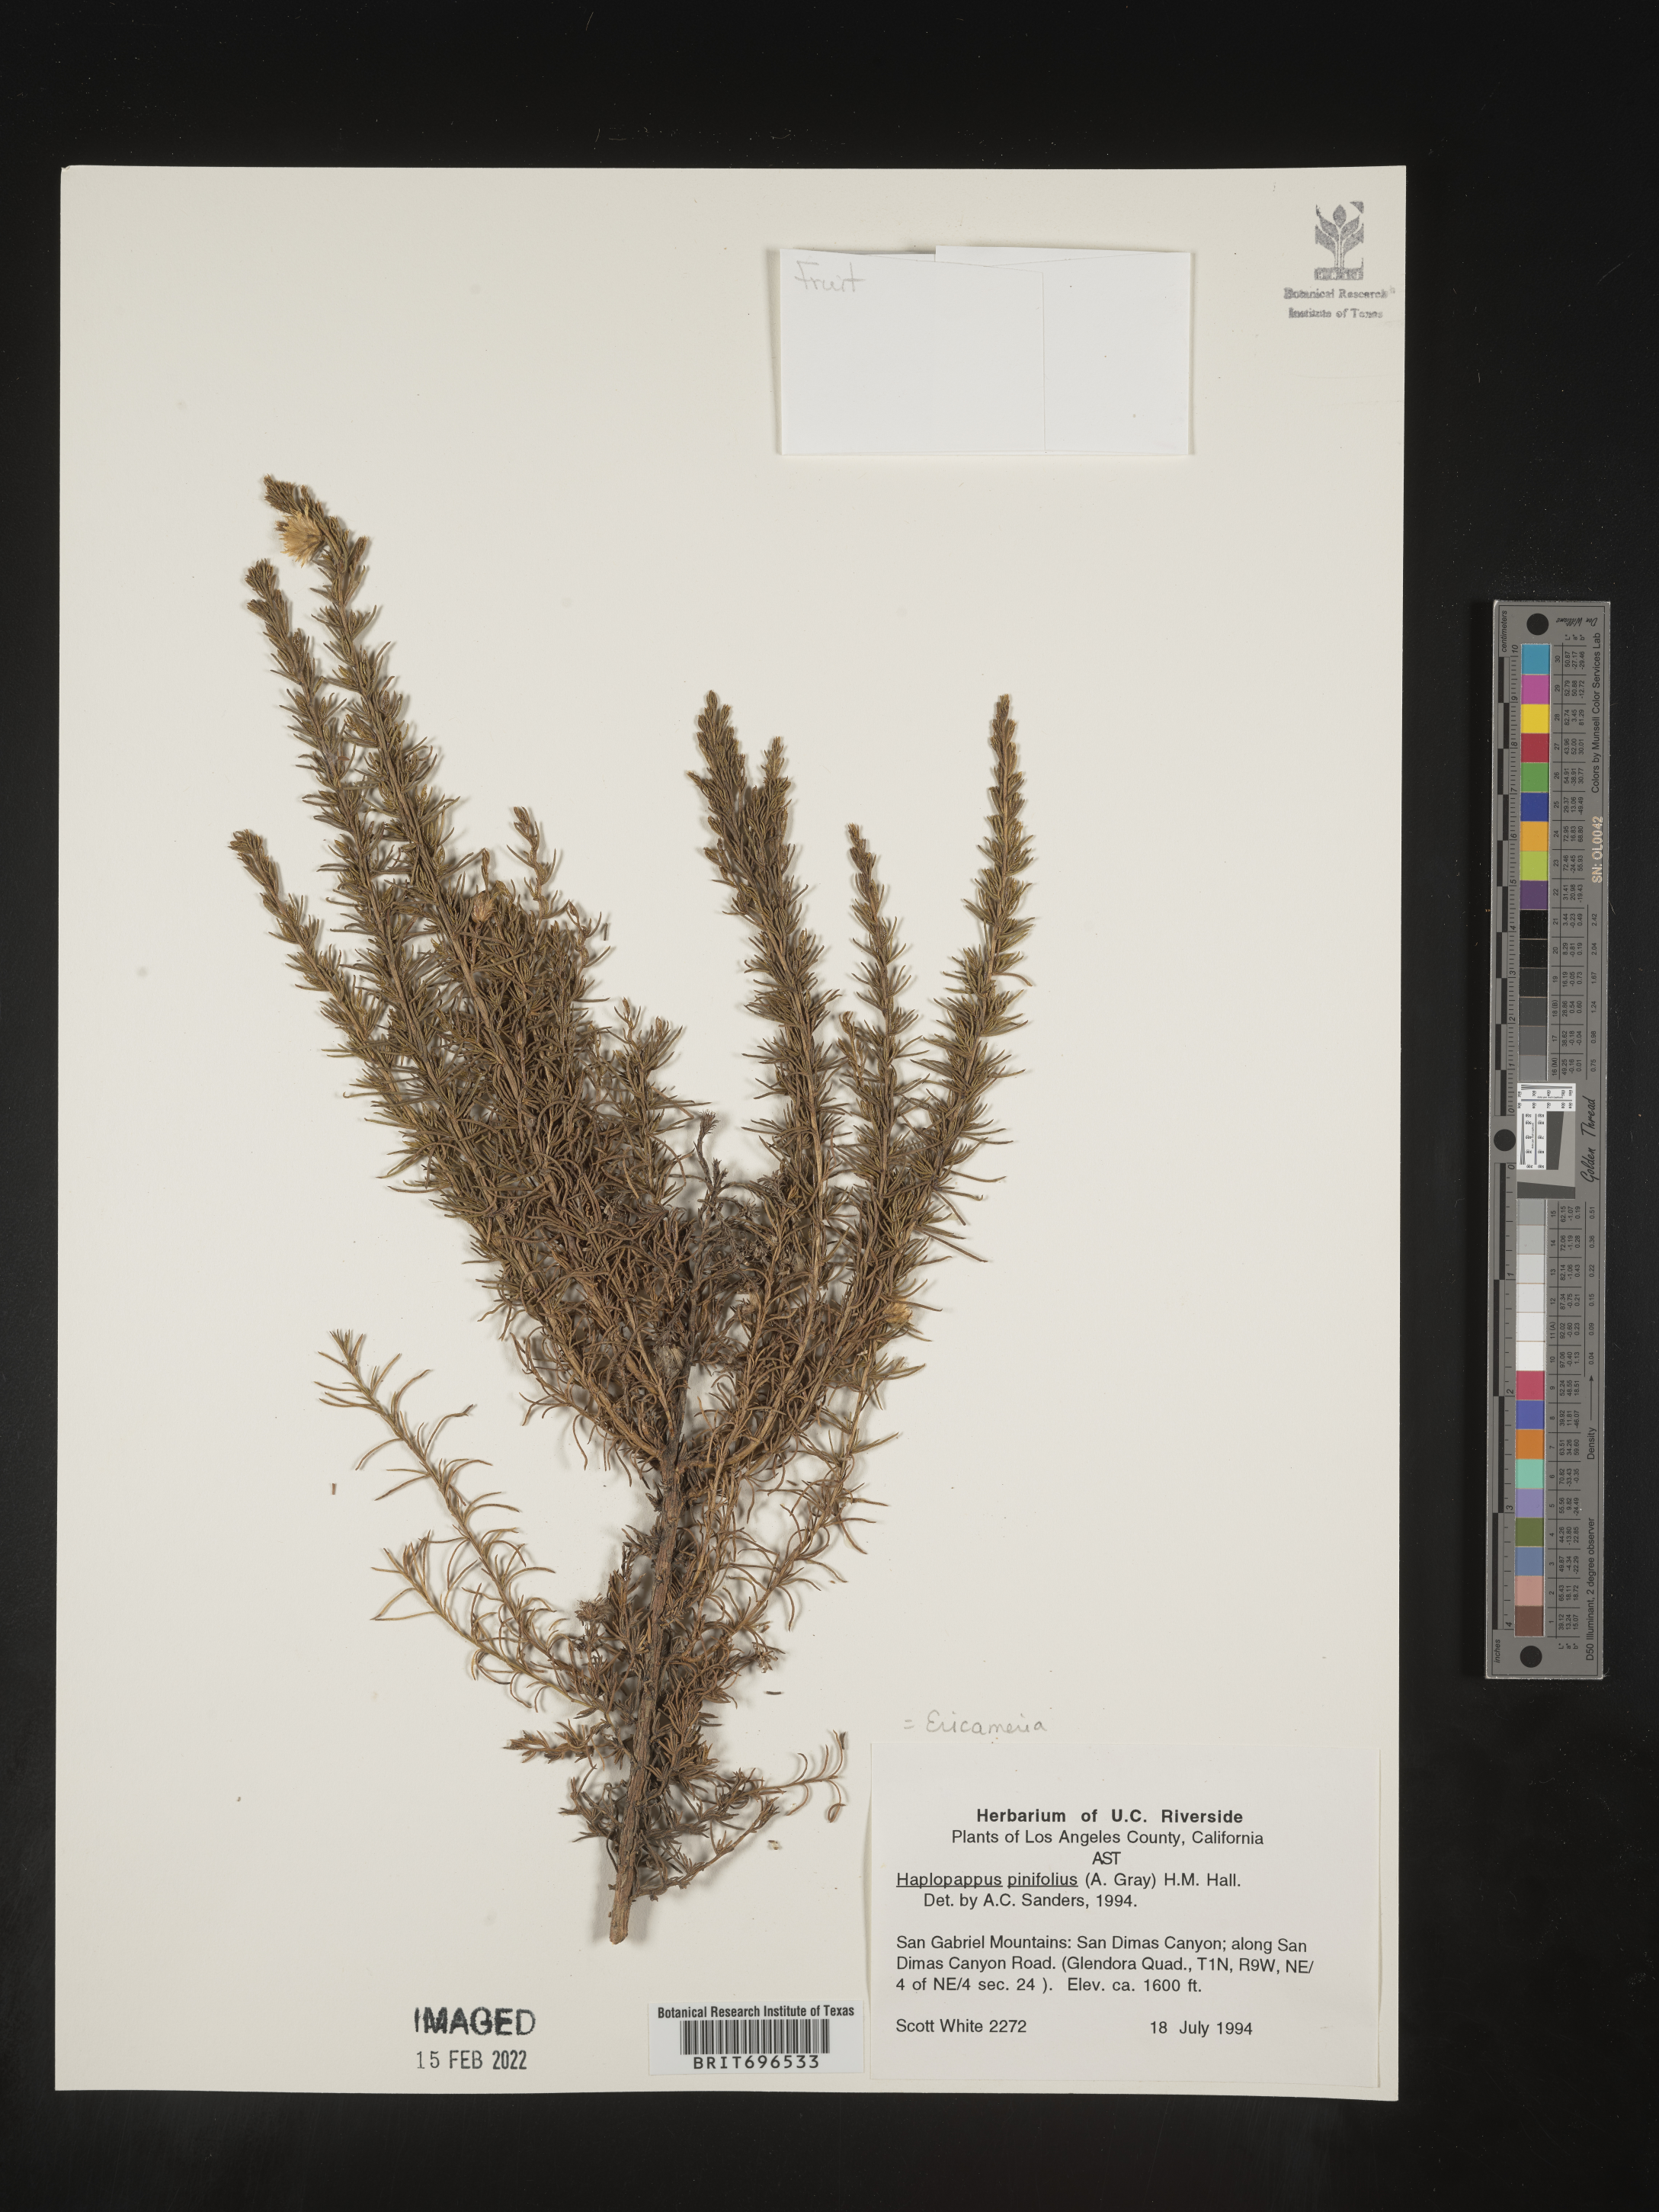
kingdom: Plantae
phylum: Tracheophyta
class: Magnoliopsida
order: Asterales
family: Asteraceae
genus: Ericameria
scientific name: Ericameria pinifolia
